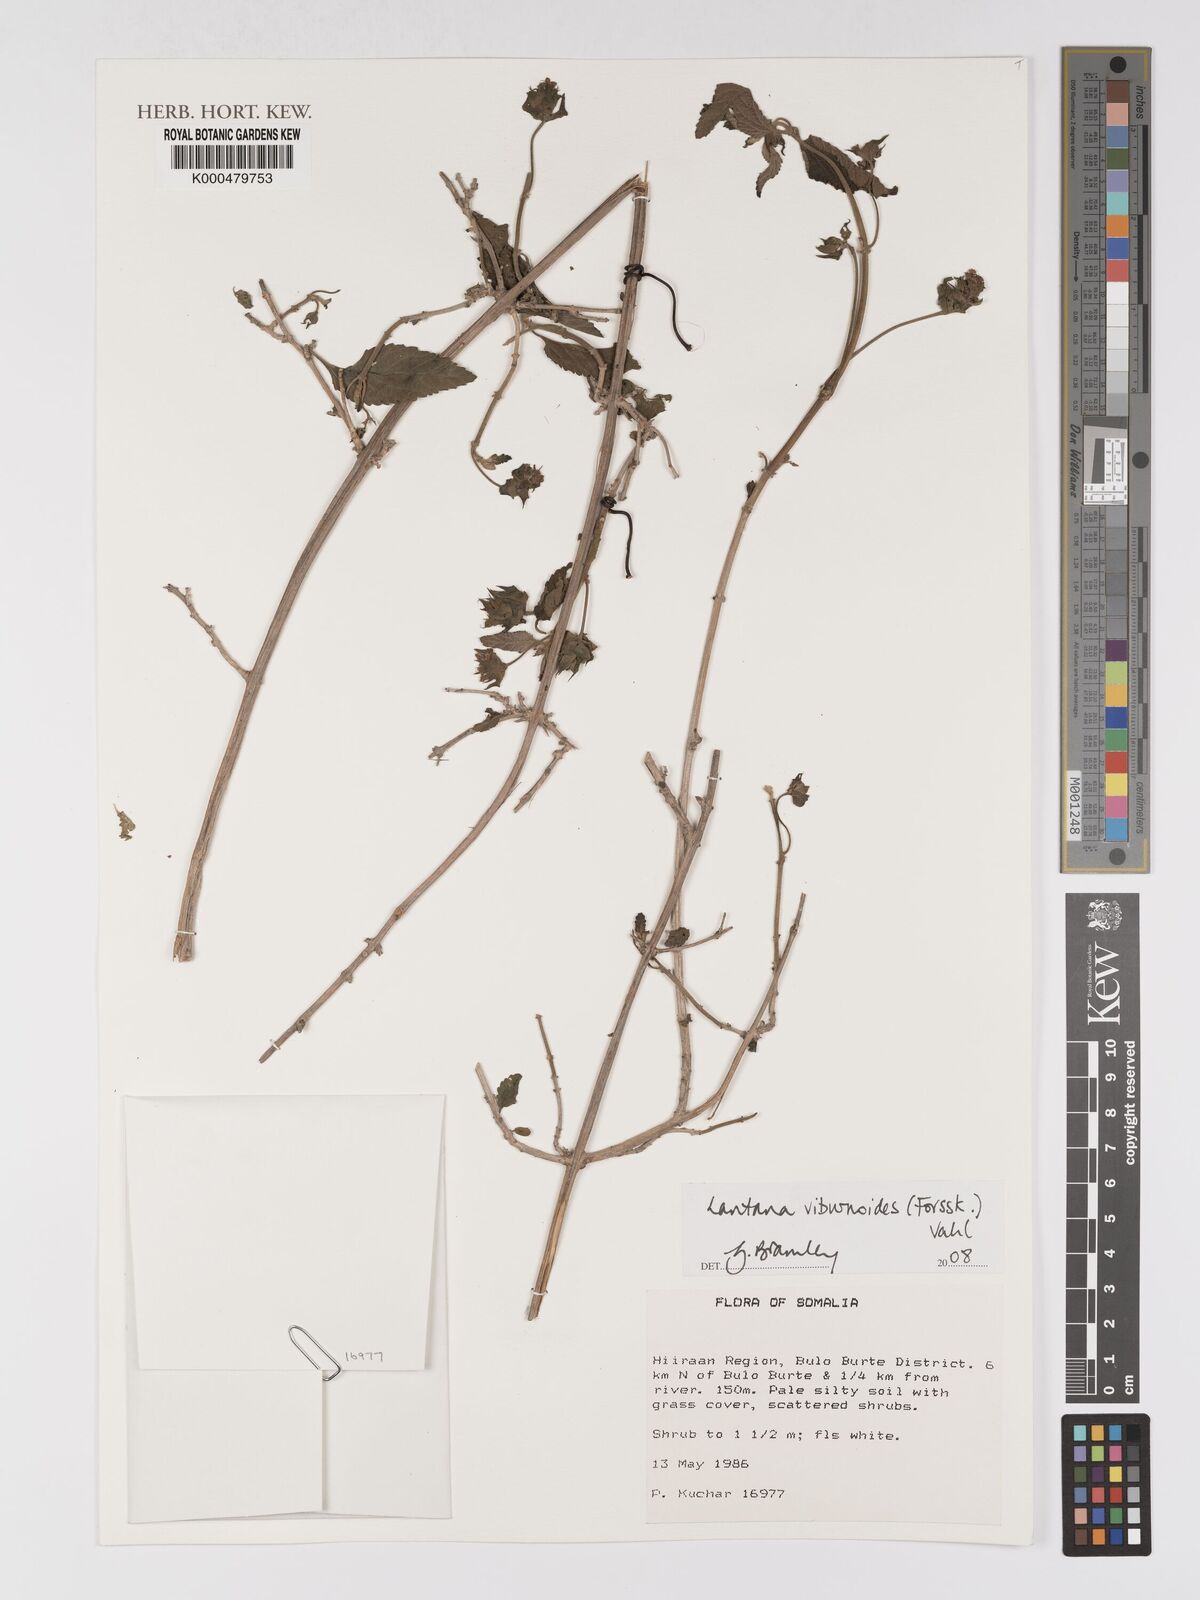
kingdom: Plantae
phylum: Tracheophyta
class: Magnoliopsida
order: Lamiales
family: Verbenaceae
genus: Lantana
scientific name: Lantana viburnoides
